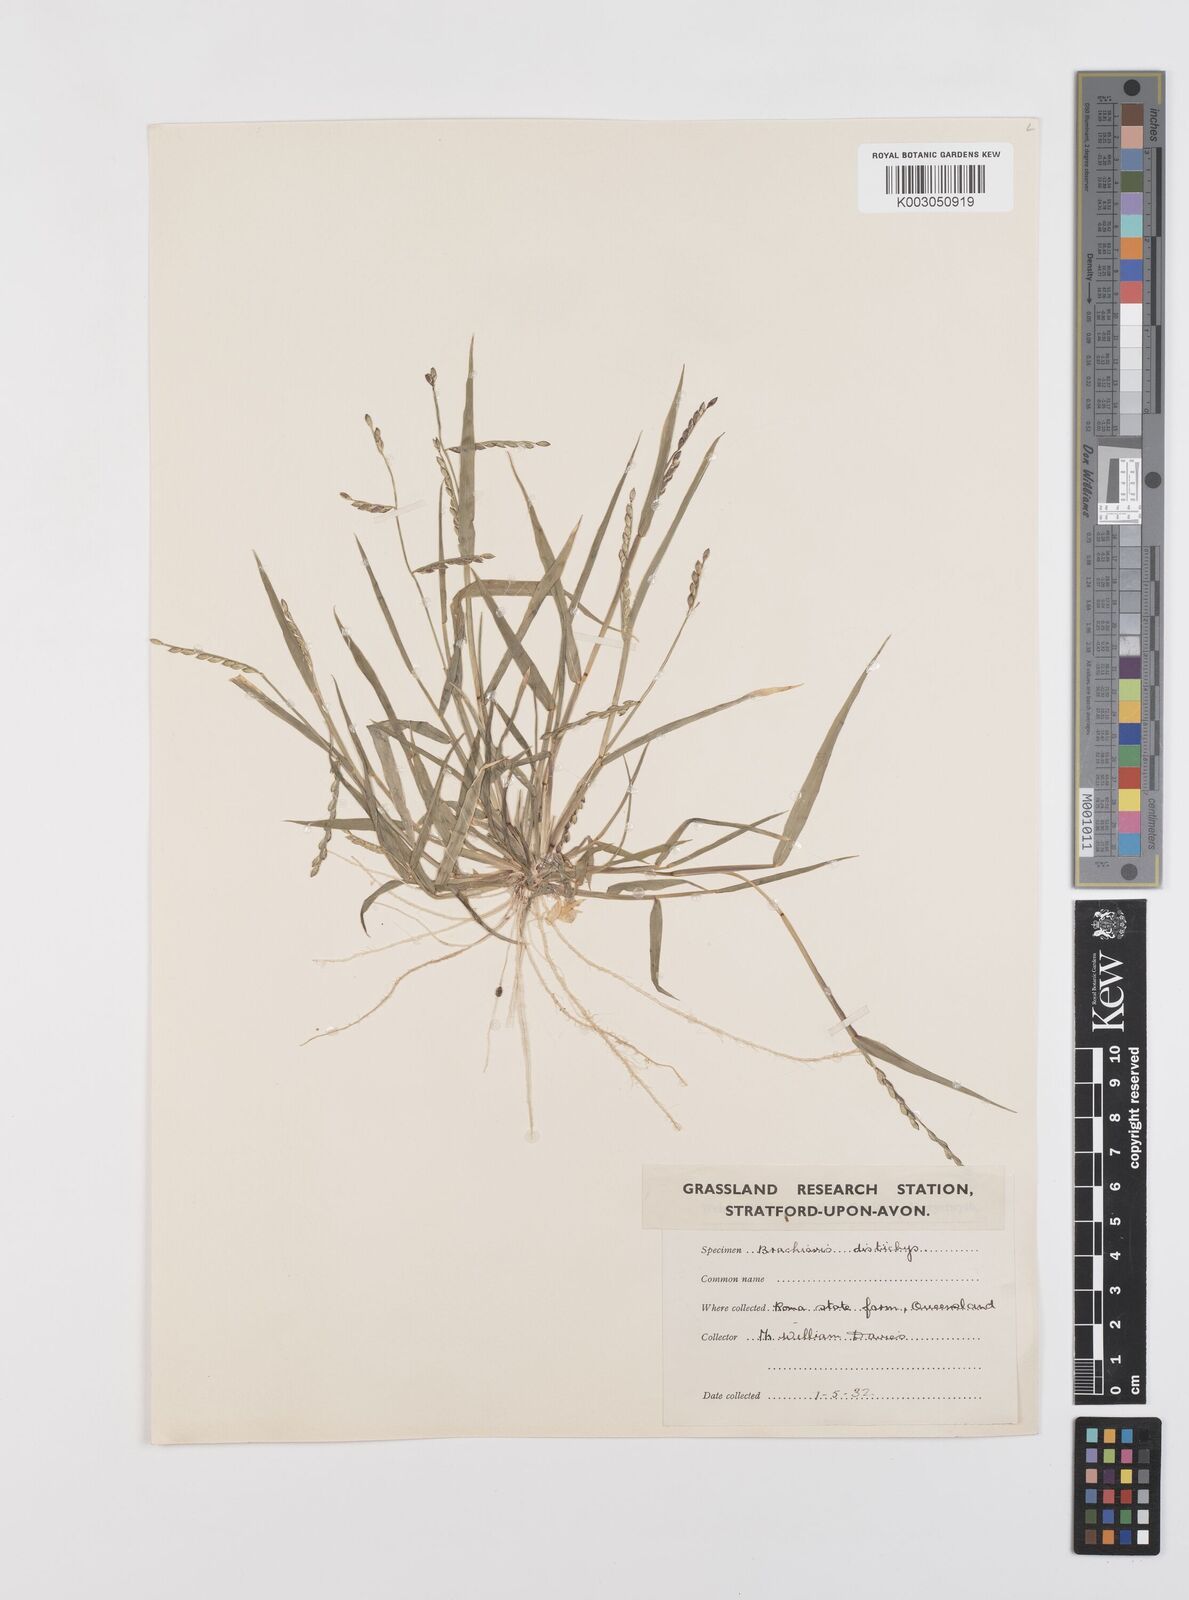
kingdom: Plantae
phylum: Tracheophyta
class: Liliopsida
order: Poales
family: Poaceae
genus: Urochloa
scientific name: Urochloa subquadripara
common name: Armgrass millet
